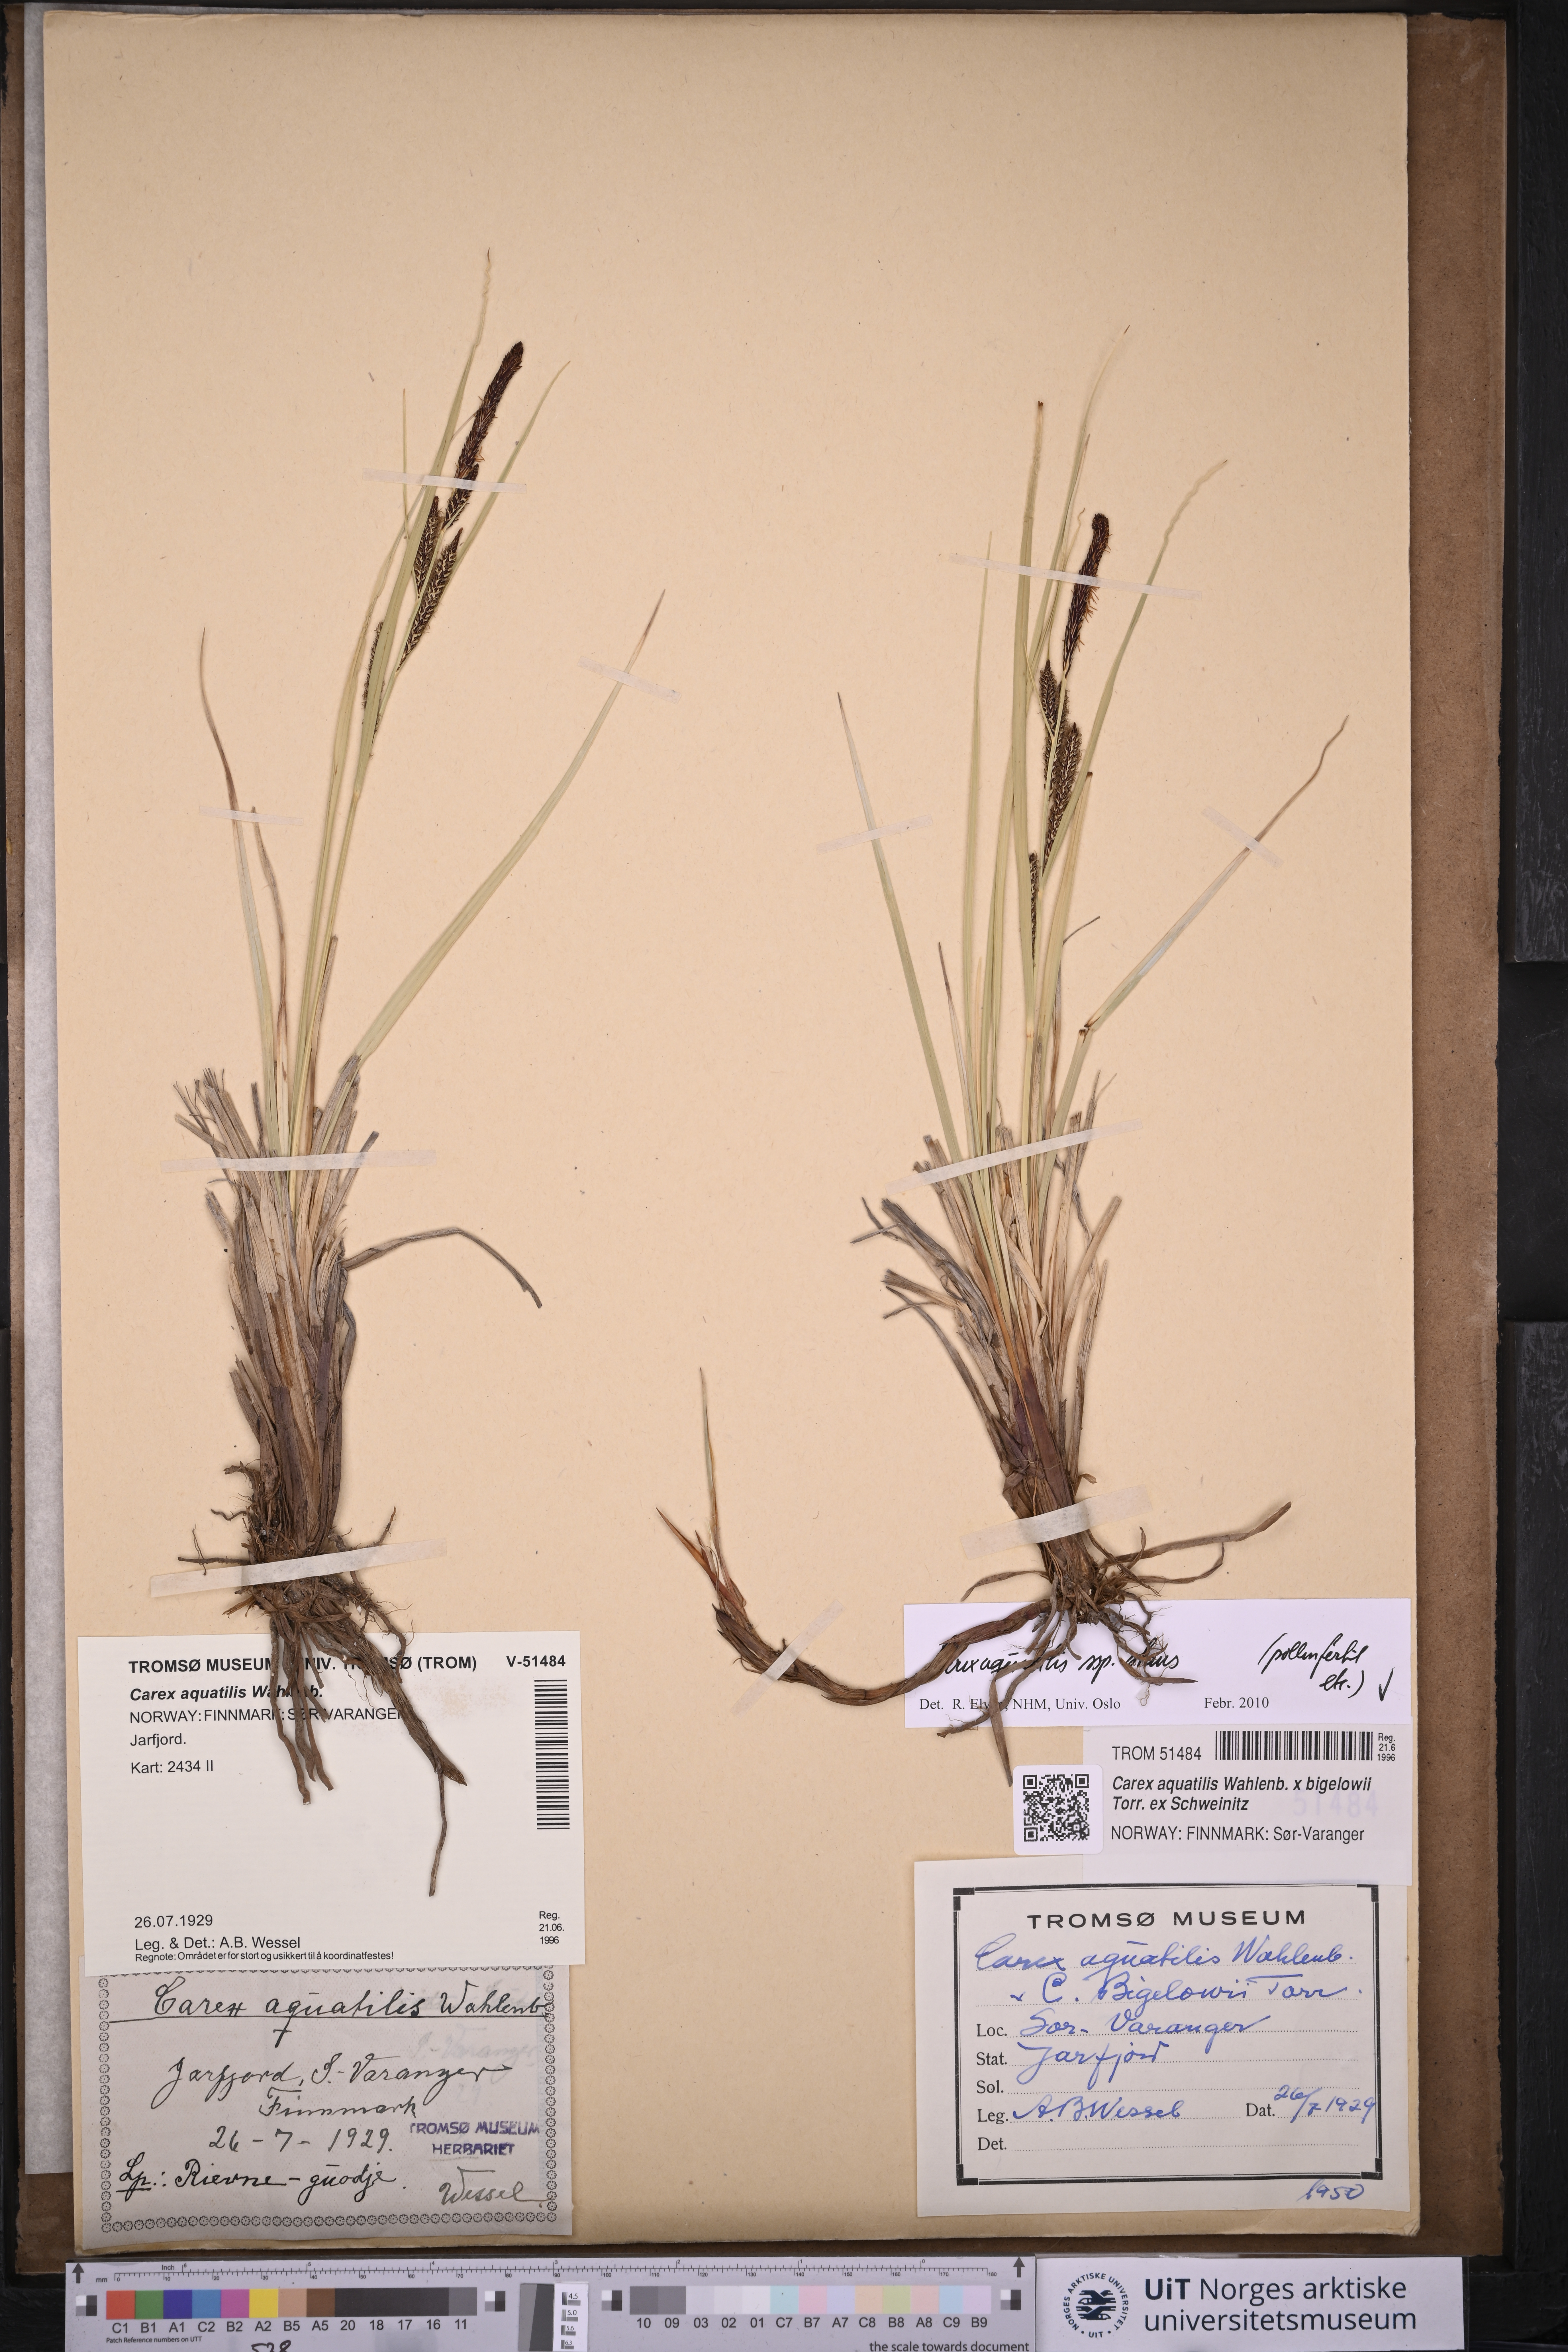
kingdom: Plantae
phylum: Tracheophyta
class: Liliopsida
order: Poales
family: Cyperaceae
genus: Carex
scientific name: Carex aquatilis
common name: Water sedge
